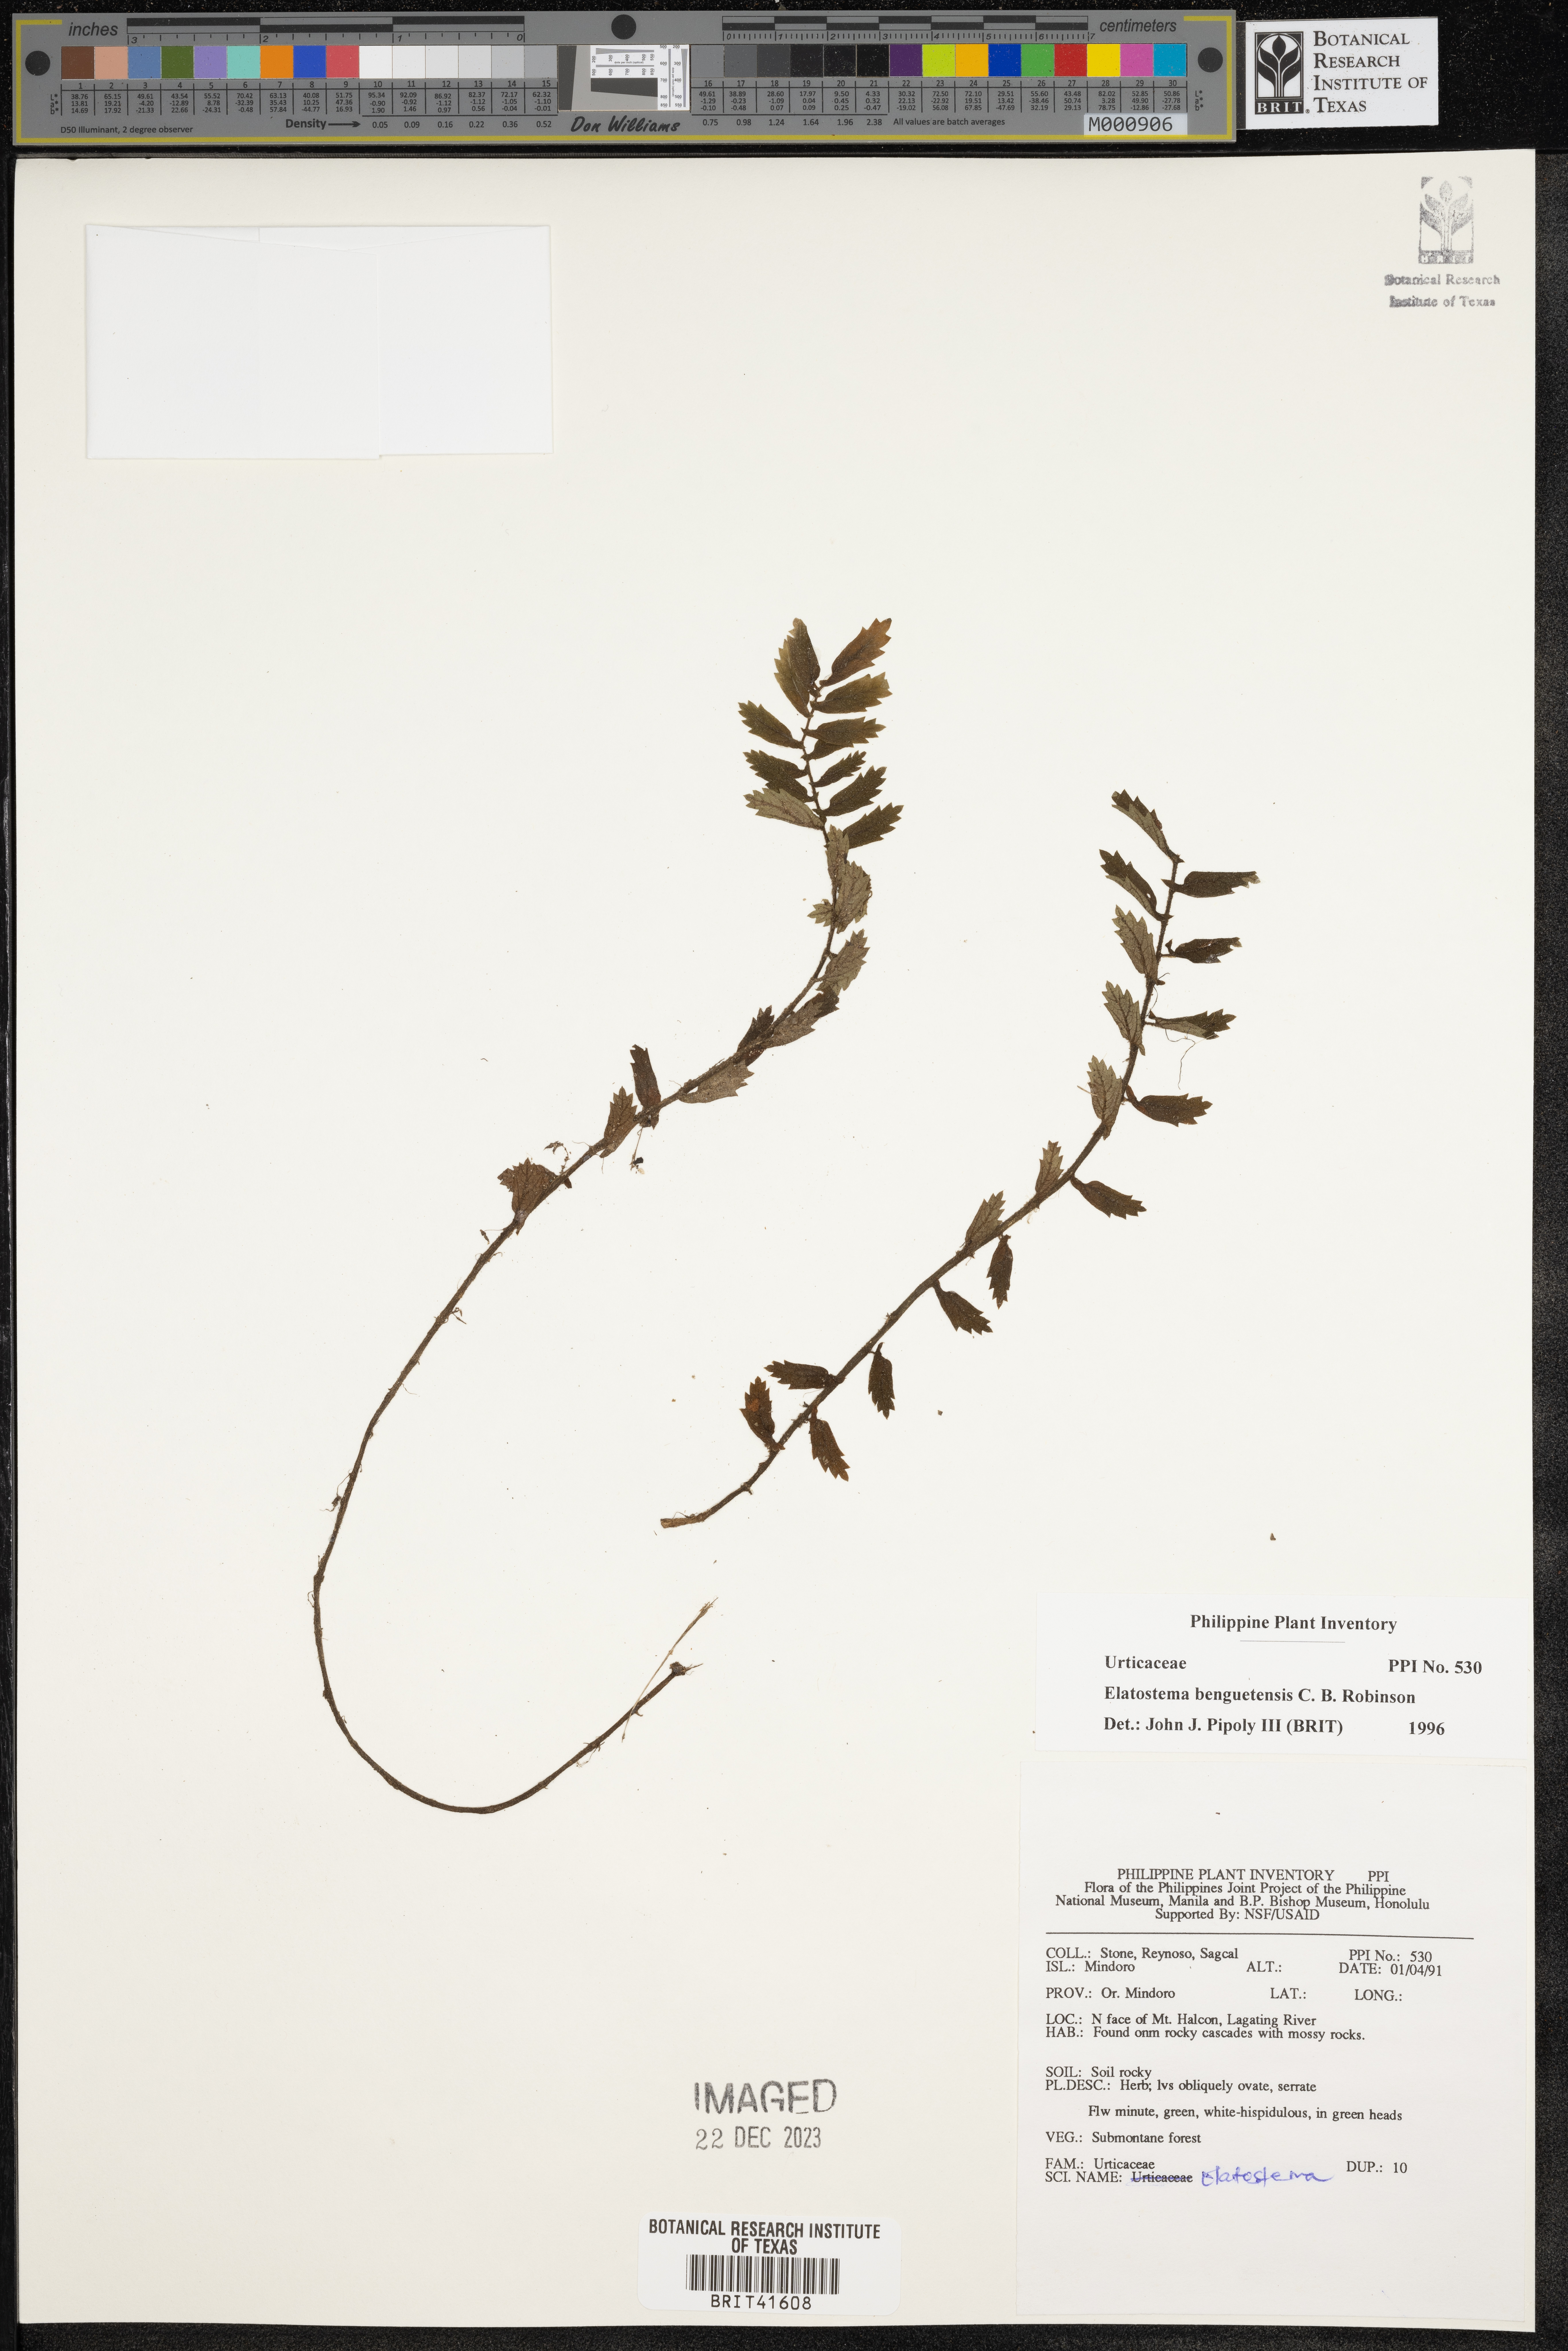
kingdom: Plantae
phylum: Tracheophyta
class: Magnoliopsida
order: Rosales
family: Urticaceae
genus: Elatostema
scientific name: Elatostema benguetense
